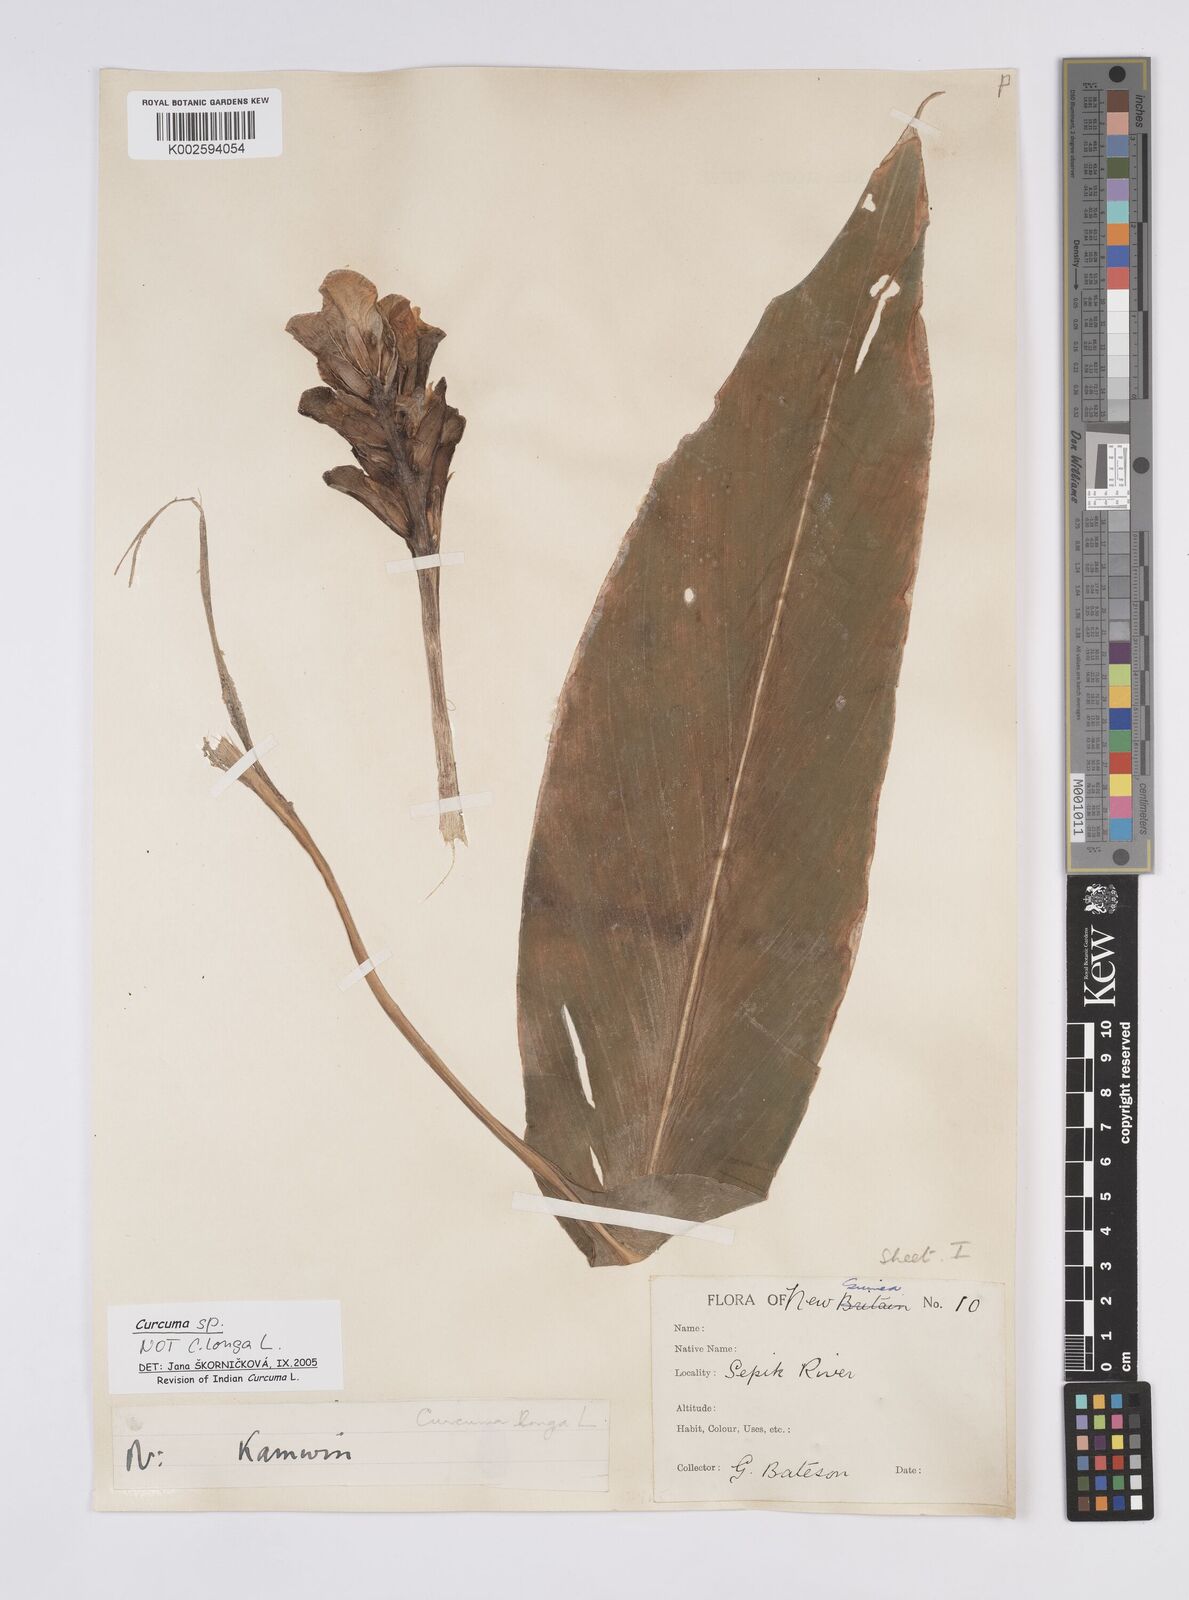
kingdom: Plantae
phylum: Tracheophyta
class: Liliopsida
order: Zingiberales
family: Zingiberaceae
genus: Curcuma
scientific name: Curcuma
